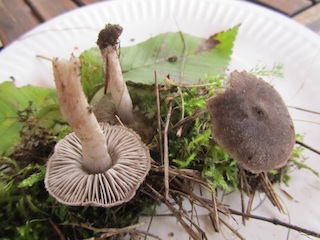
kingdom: Fungi
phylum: Basidiomycota
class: Agaricomycetes
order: Agaricales
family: Tricholomataceae
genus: Tricholoma
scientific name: Tricholoma terreum
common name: jordfarvet ridderhat
